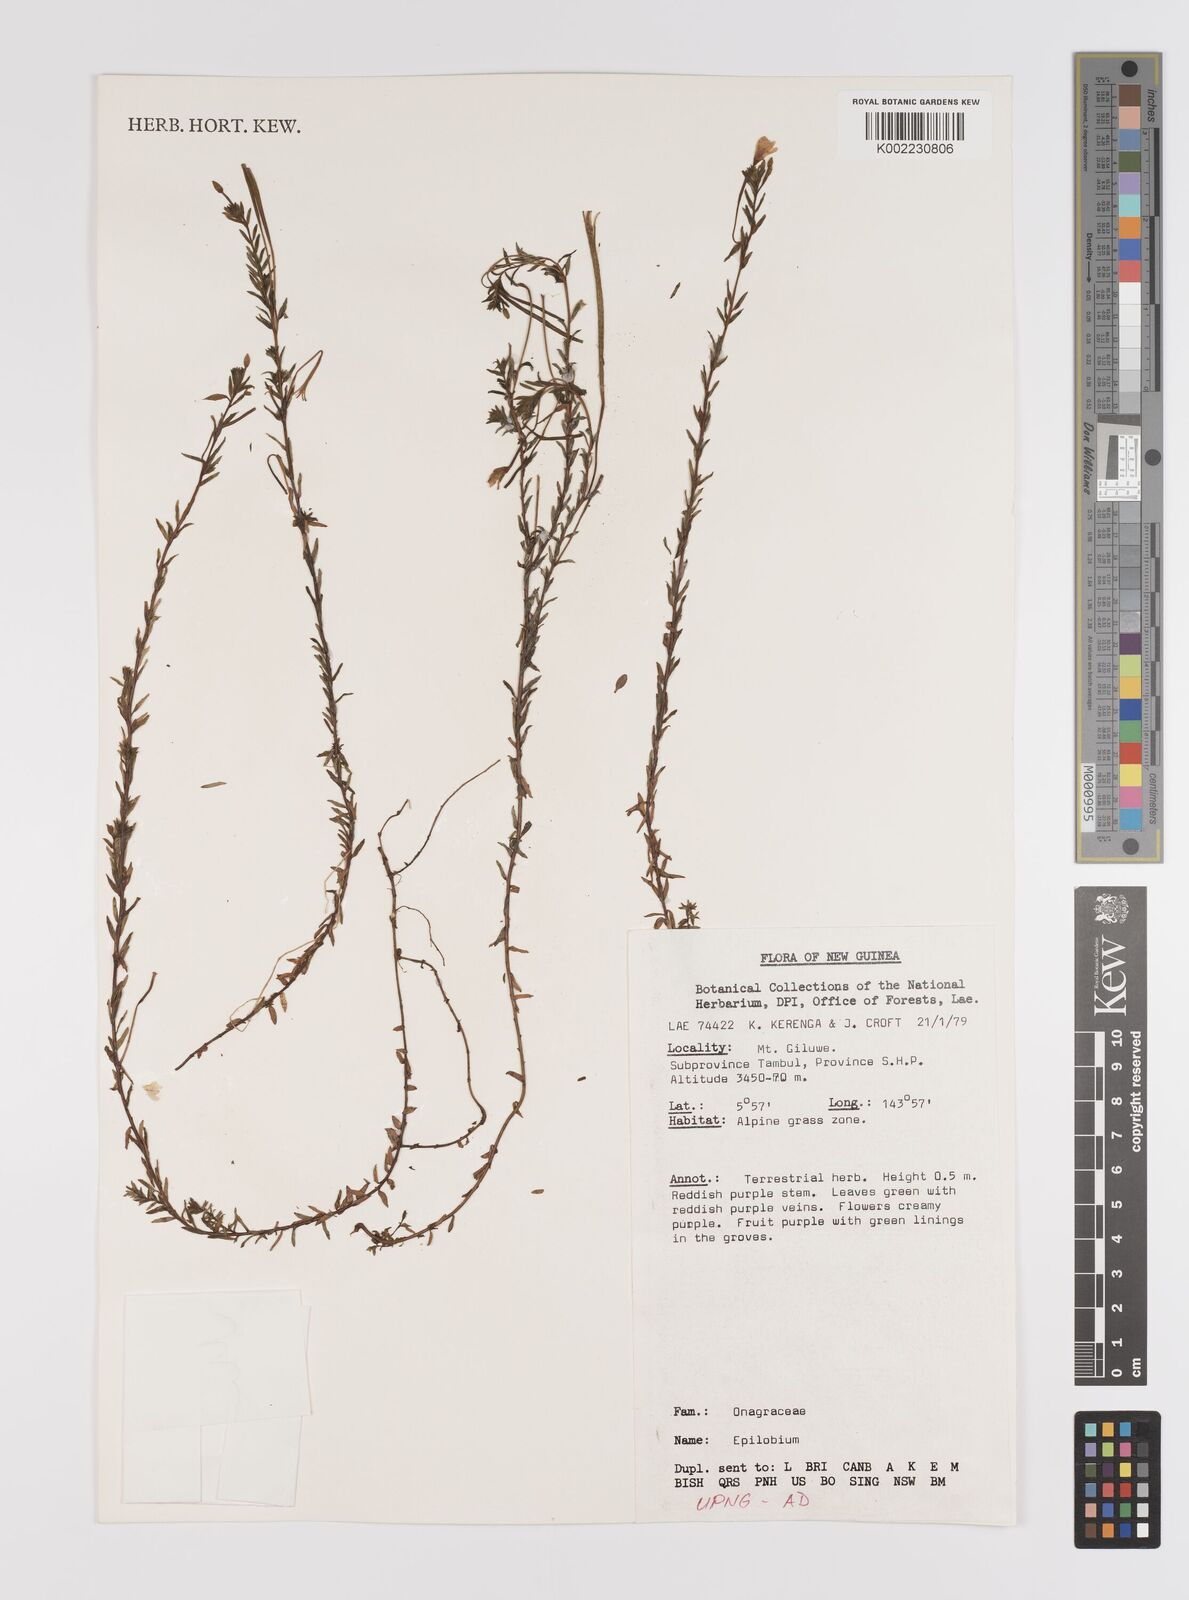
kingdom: Plantae
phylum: Tracheophyta
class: Magnoliopsida
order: Myrtales
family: Onagraceae
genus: Epilobium
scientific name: Epilobium
